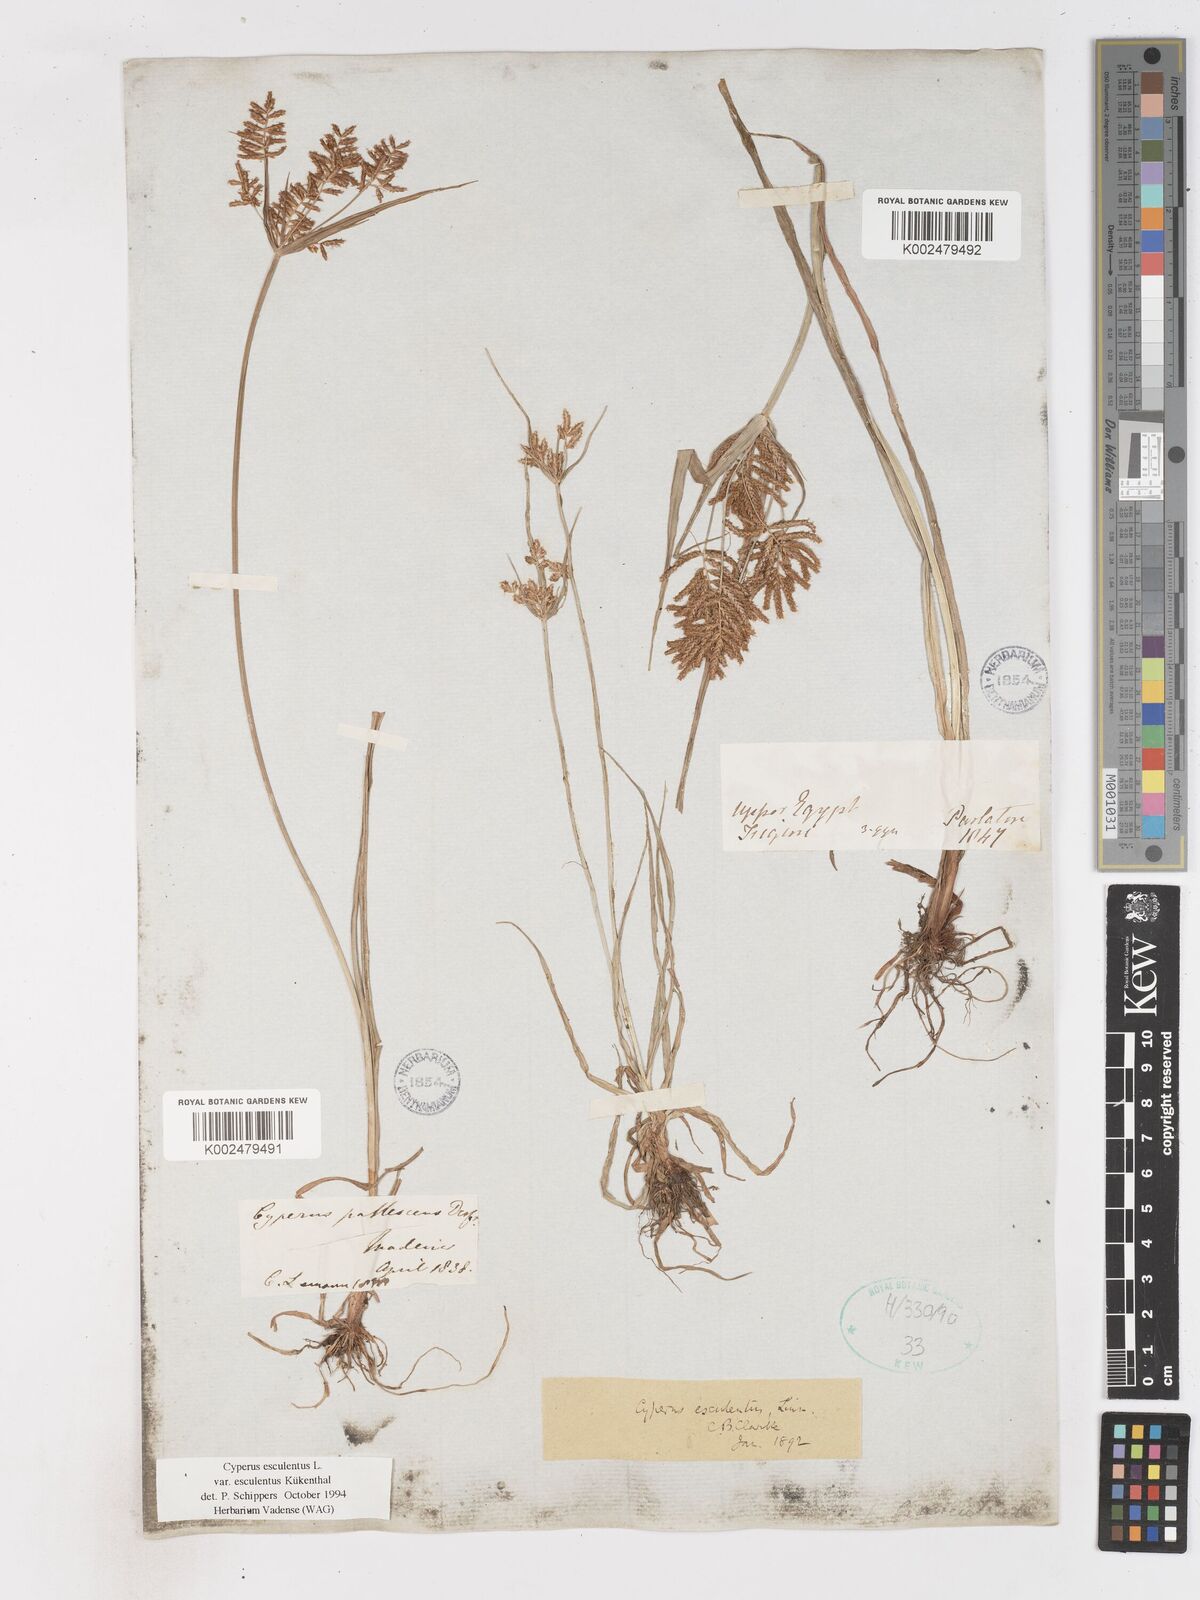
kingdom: Plantae
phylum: Tracheophyta
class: Liliopsida
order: Poales
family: Cyperaceae
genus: Cyperus
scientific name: Cyperus esculentus
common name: Yellow nutsedge
